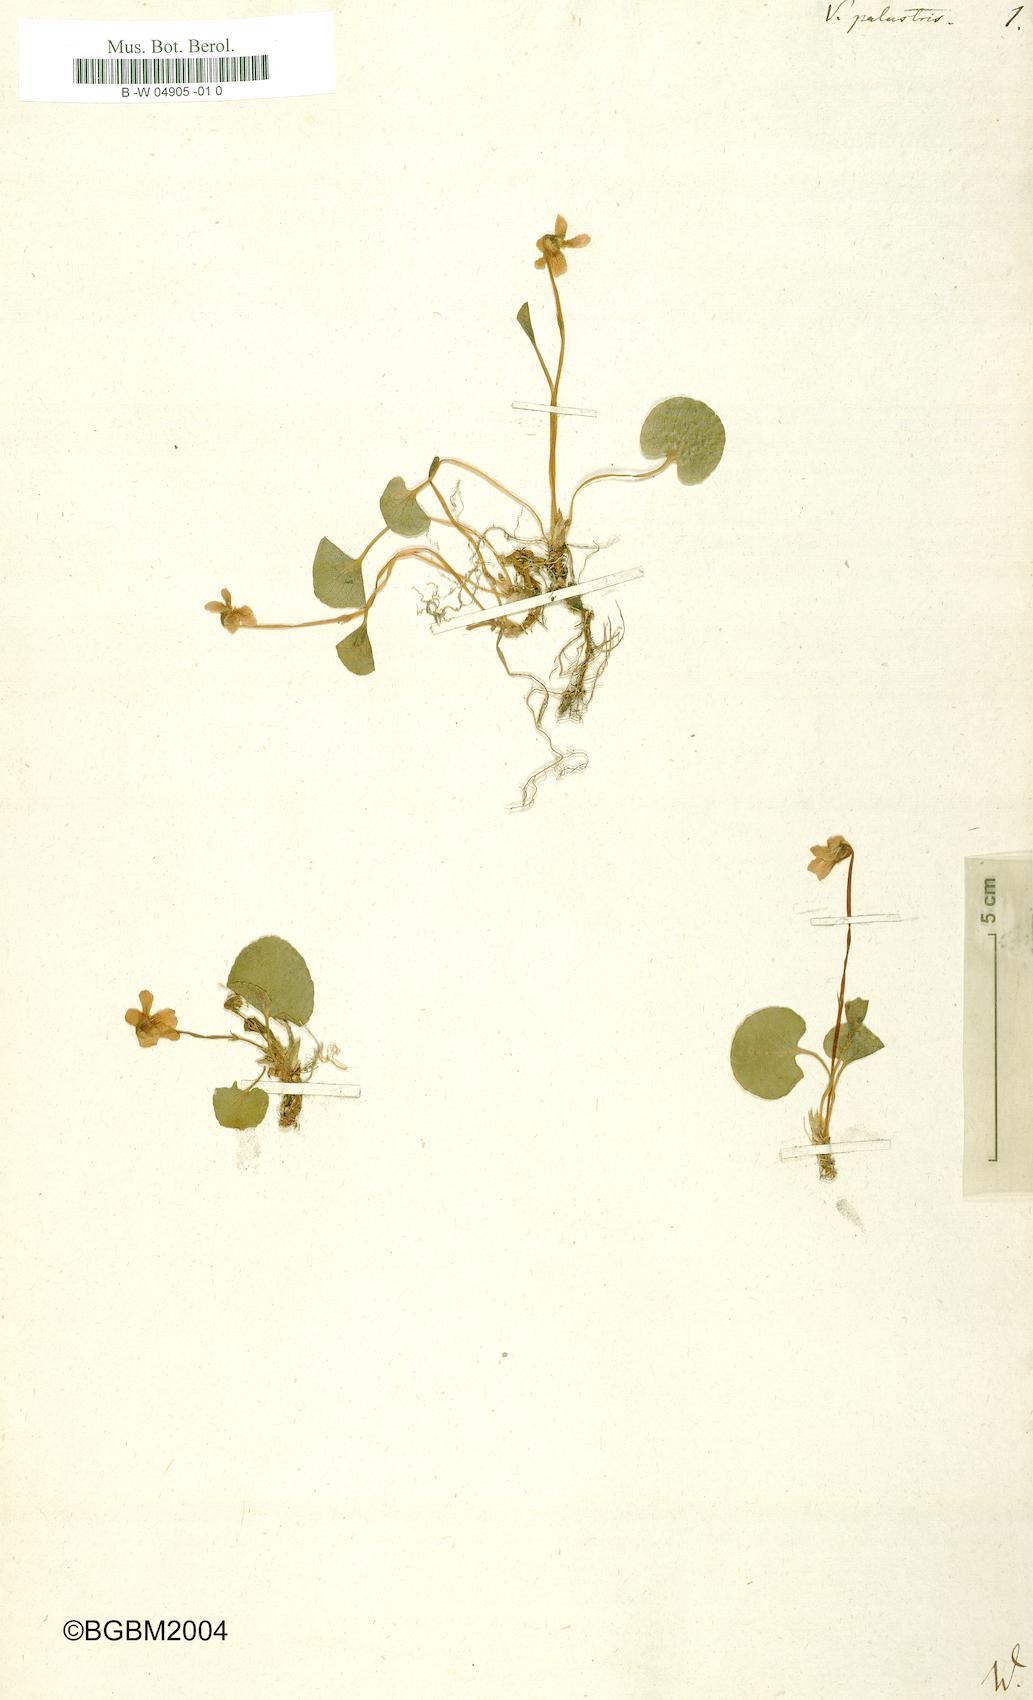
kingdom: Plantae
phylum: Tracheophyta
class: Magnoliopsida
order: Malpighiales
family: Violaceae
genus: Viola
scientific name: Viola palustris
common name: Marsh violet
